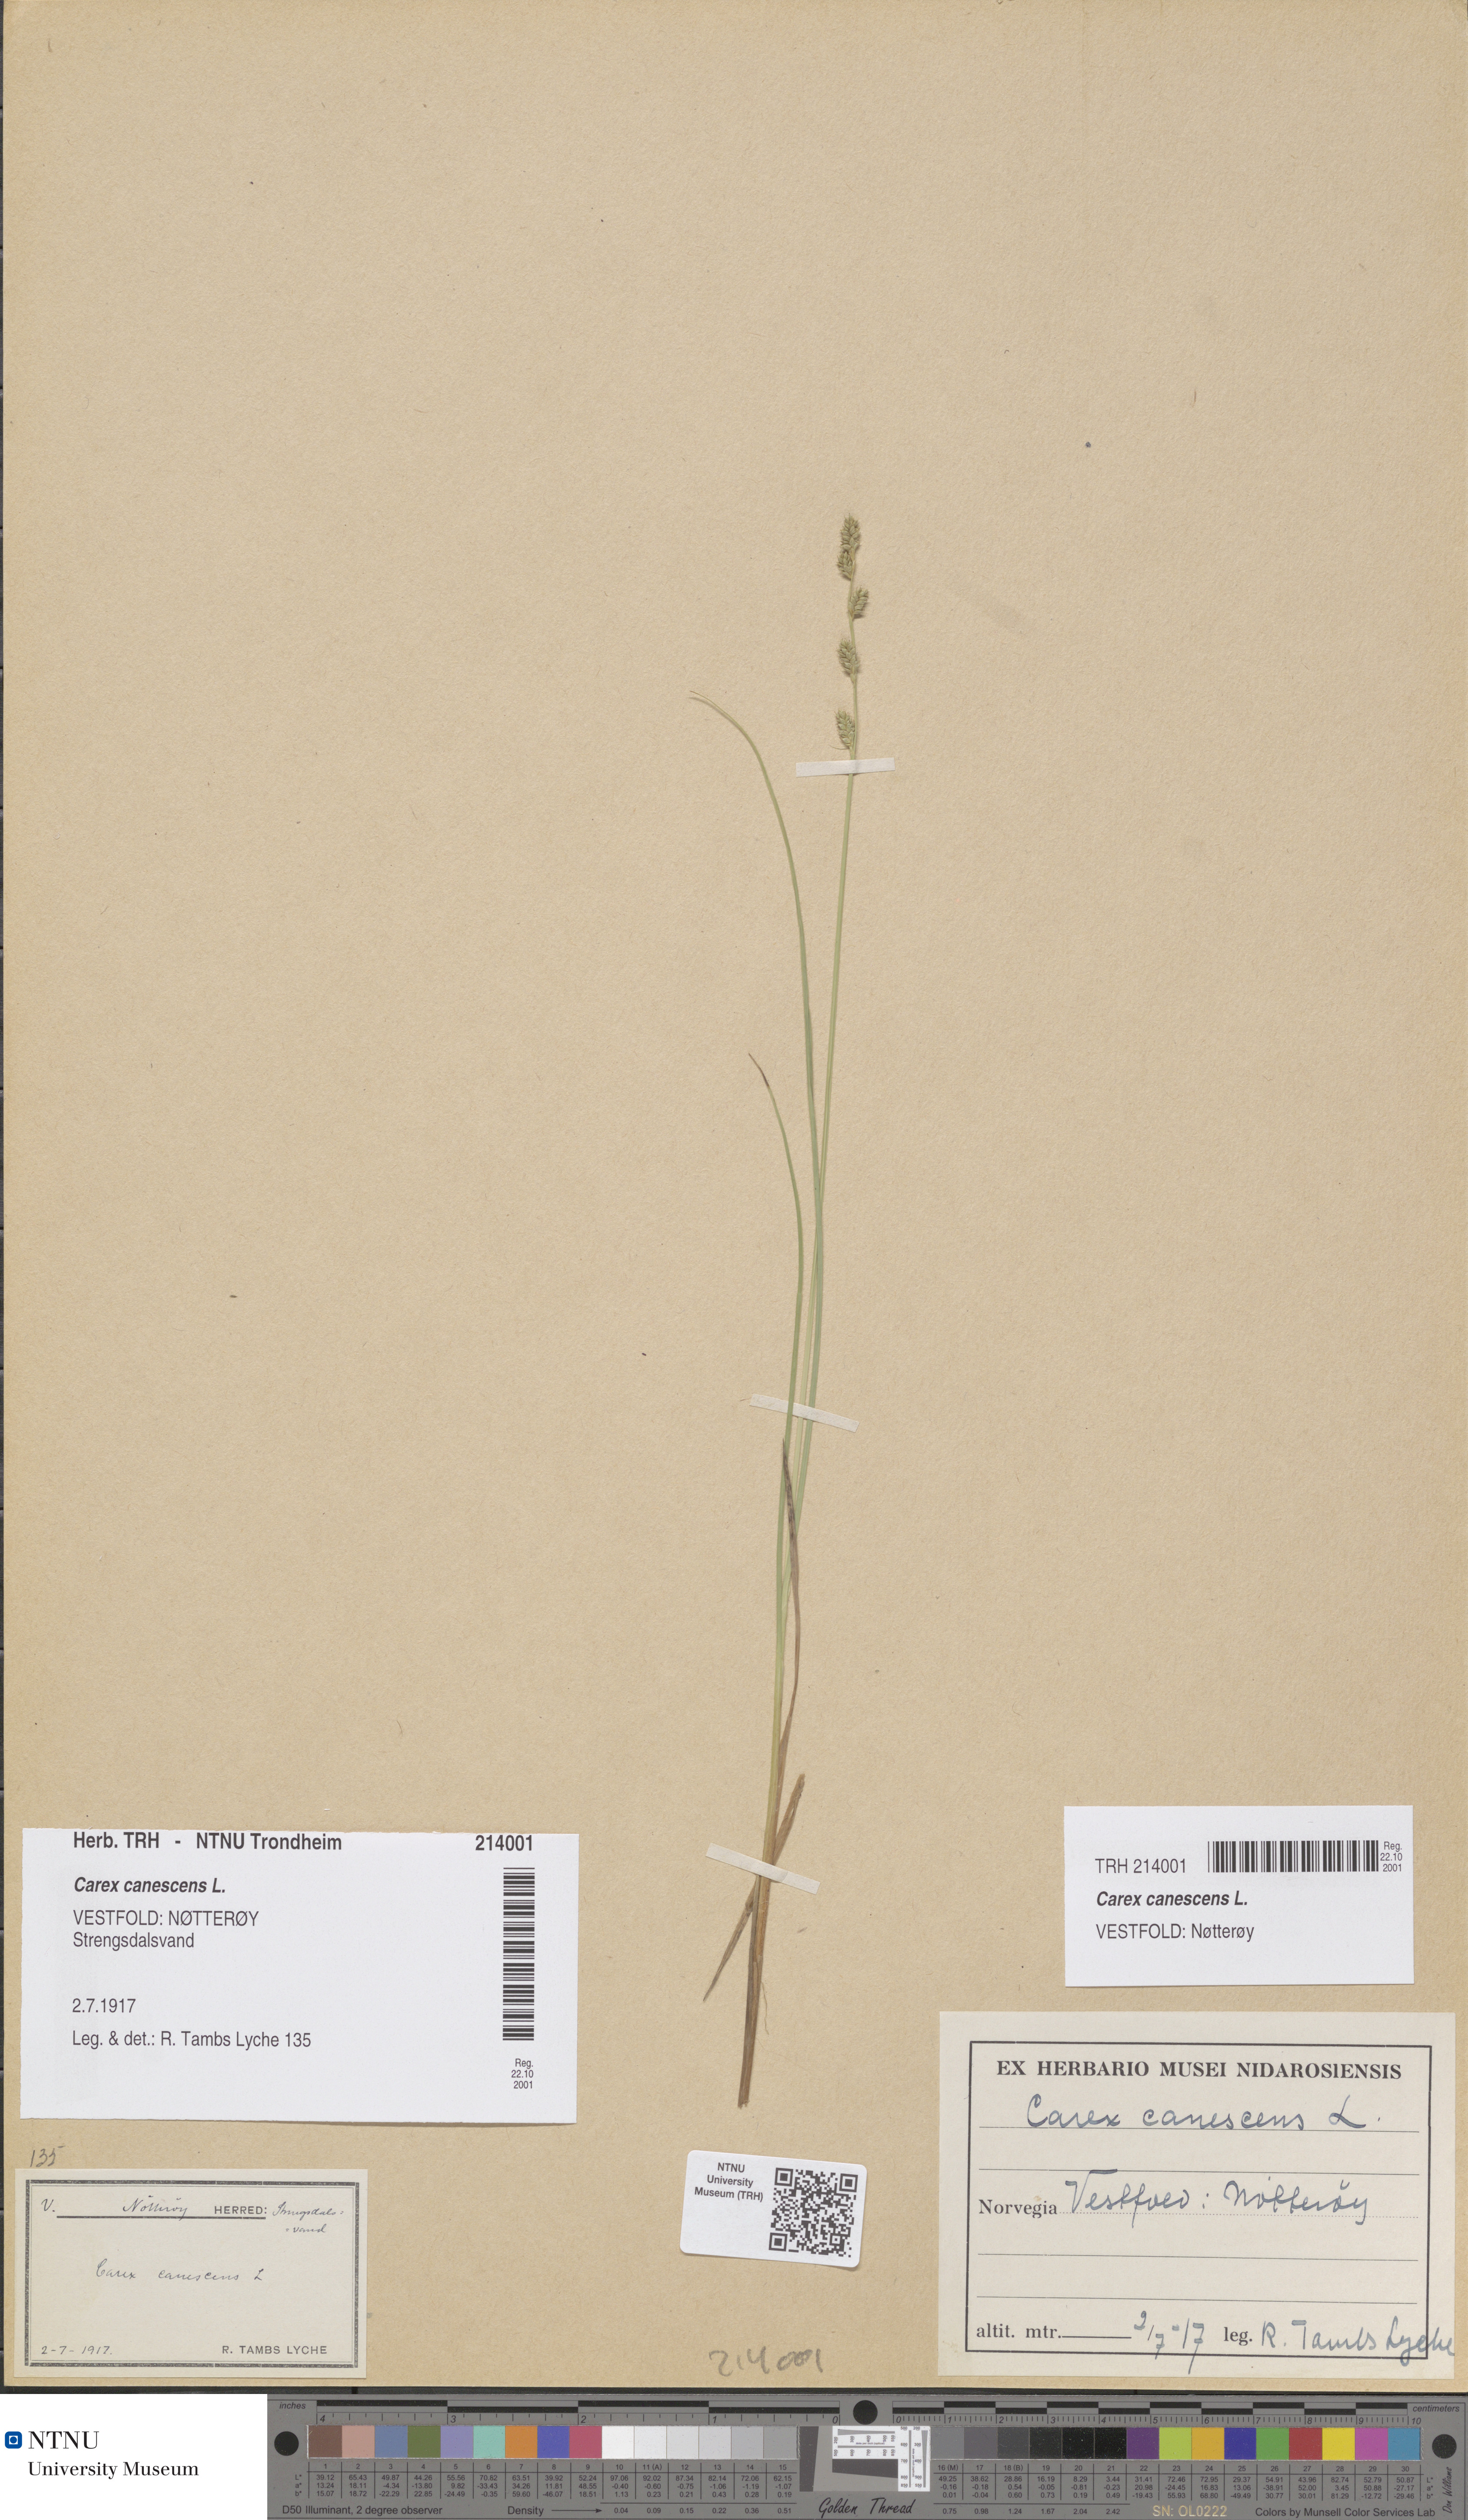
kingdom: Plantae
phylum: Tracheophyta
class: Liliopsida
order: Poales
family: Cyperaceae
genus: Carex
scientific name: Carex canescens
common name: White sedge
